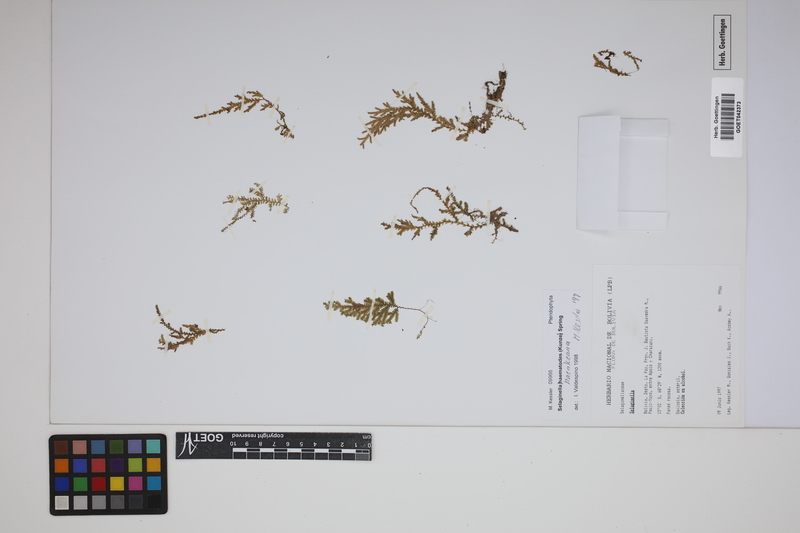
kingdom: Plantae
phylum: Tracheophyta
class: Lycopodiopsida
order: Selaginellales
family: Selaginellaceae
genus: Selaginella
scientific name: Selaginella haenkeana
